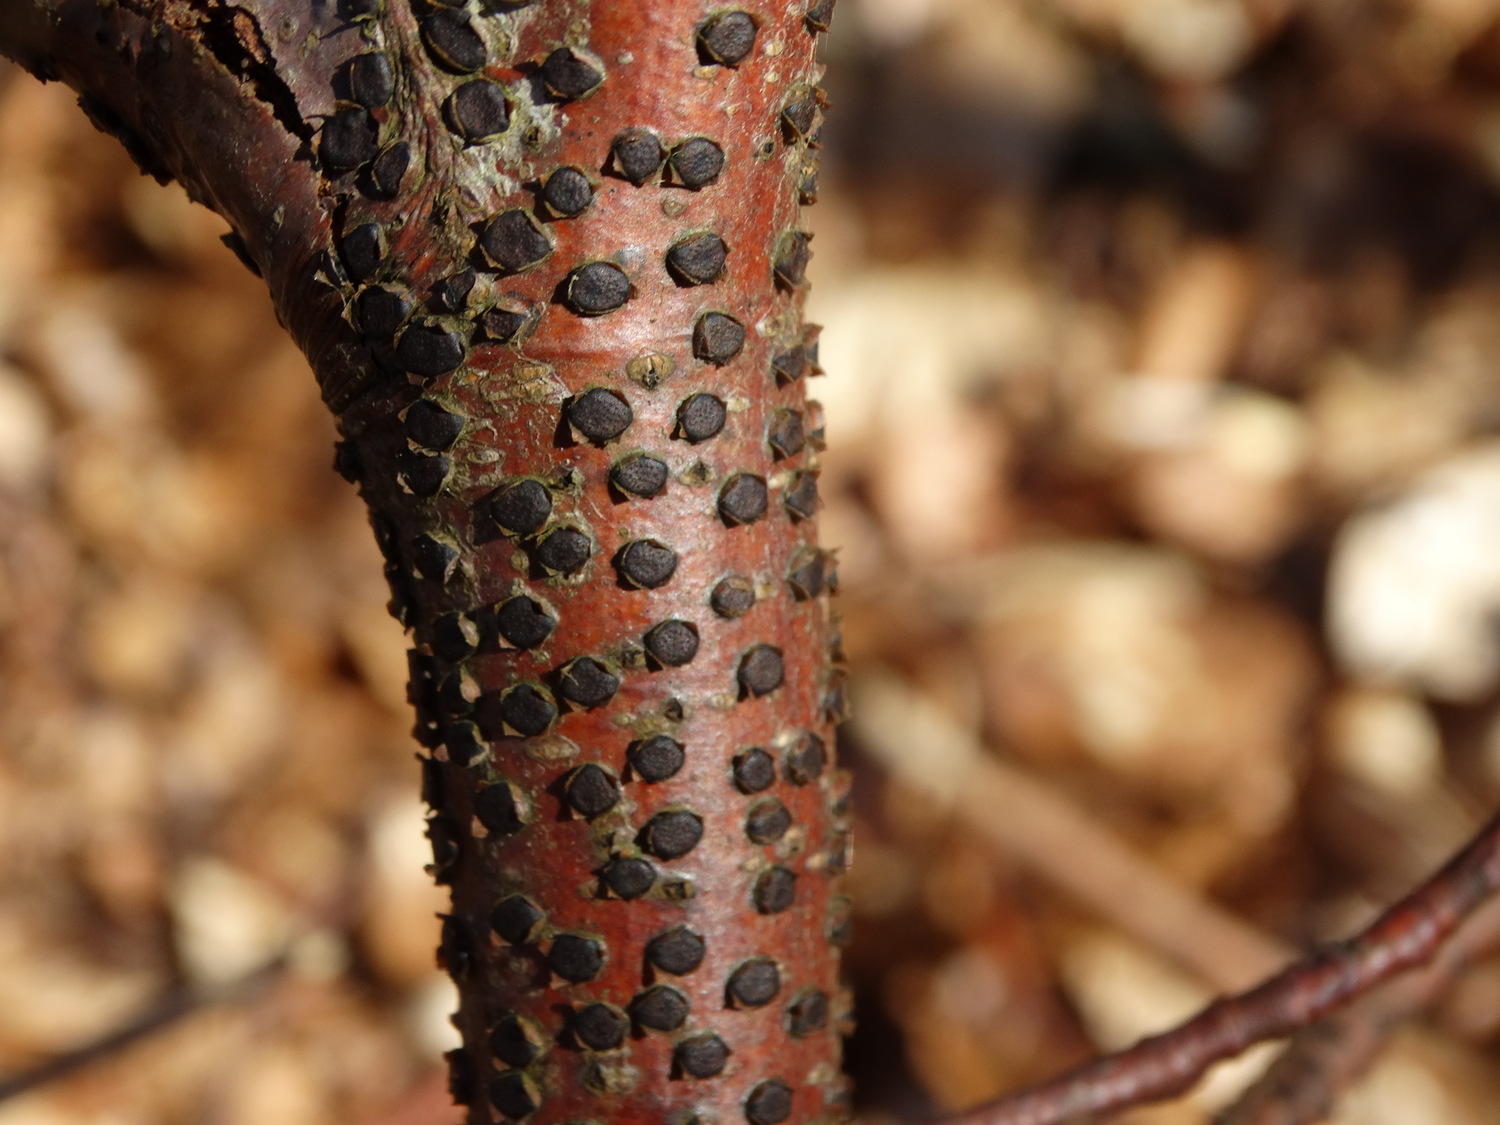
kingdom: Fungi
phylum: Ascomycota
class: Sordariomycetes
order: Xylariales
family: Diatrypaceae
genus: Diatrype
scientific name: Diatrype disciformis
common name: kant-kulskorpe
